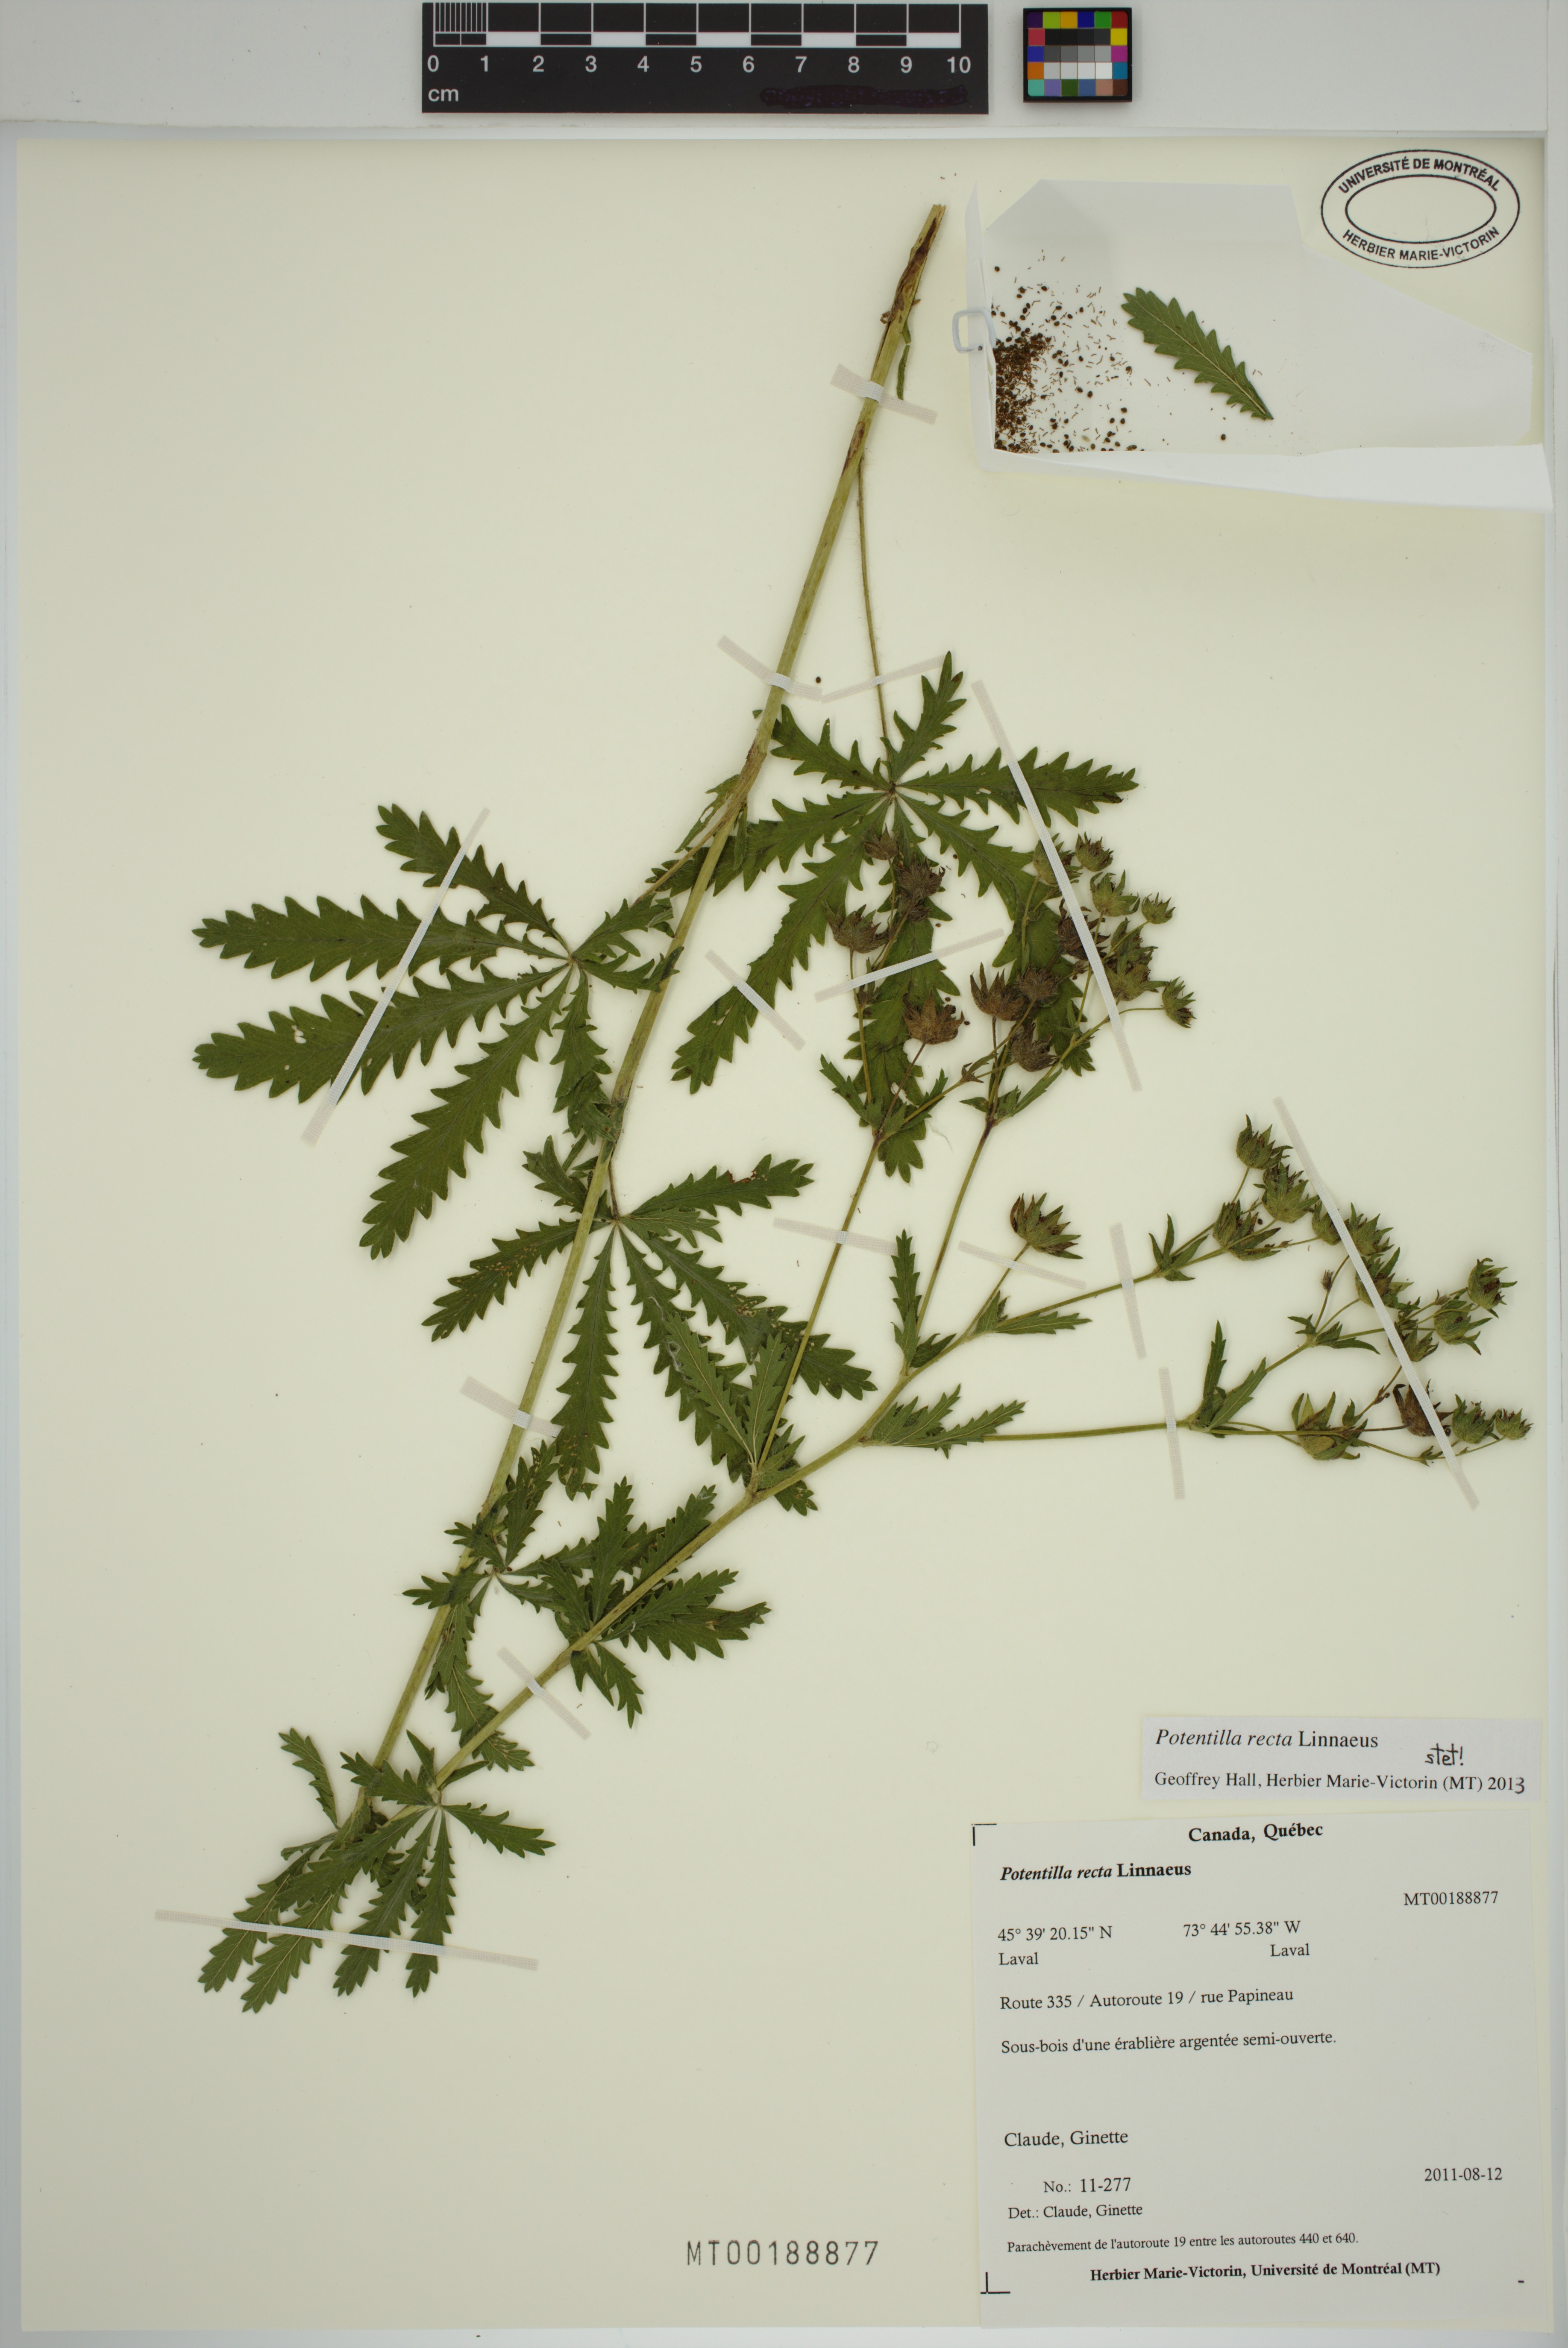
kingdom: Plantae
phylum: Tracheophyta
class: Magnoliopsida
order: Rosales
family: Rosaceae
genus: Potentilla
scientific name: Potentilla recta
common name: Sulphur cinquefoil
